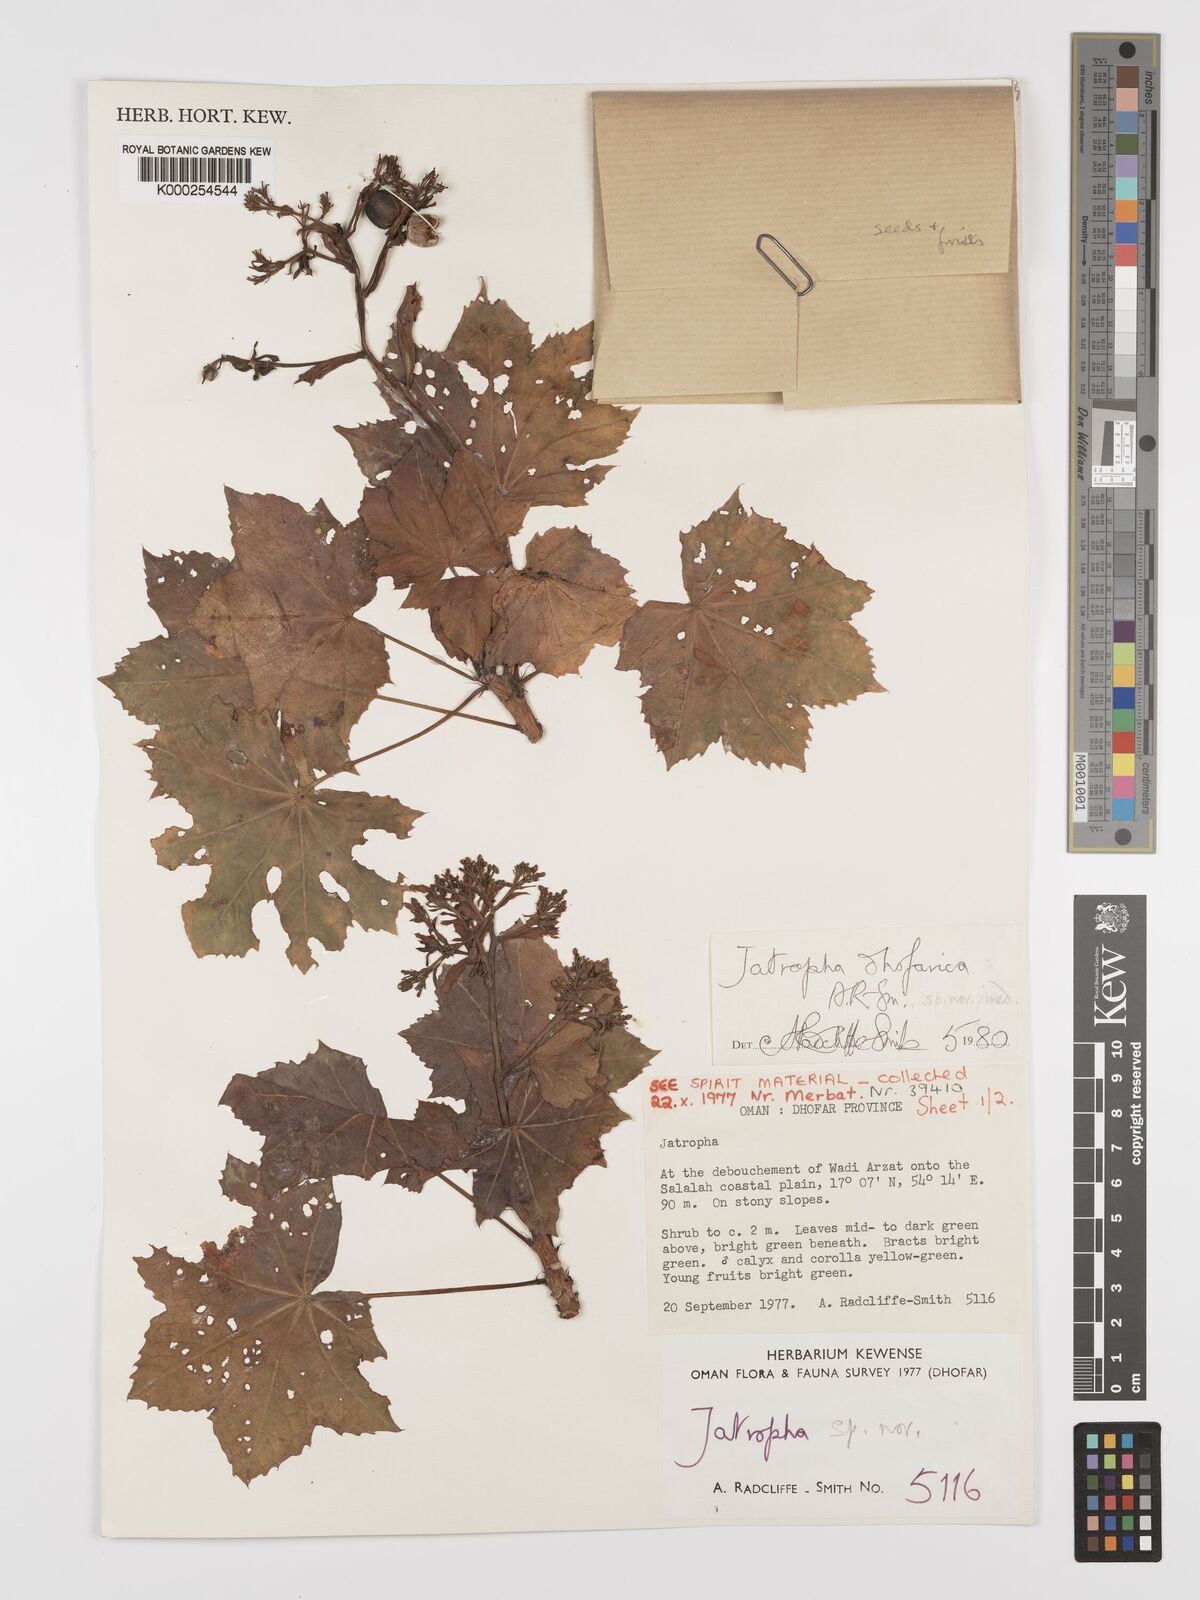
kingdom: Plantae
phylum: Tracheophyta
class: Magnoliopsida
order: Malpighiales
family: Euphorbiaceae
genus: Jatropha
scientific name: Jatropha dhofarica
